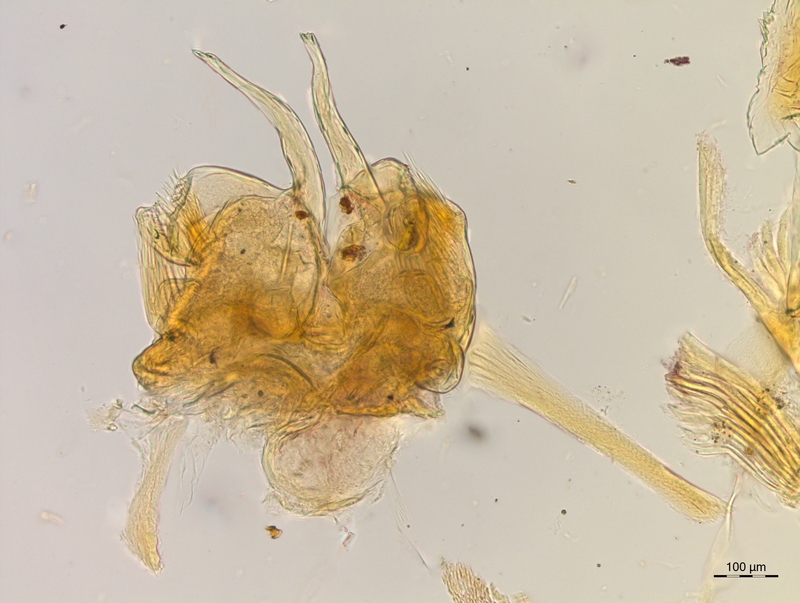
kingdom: Animalia
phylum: Arthropoda
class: Diplopoda
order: Chordeumatida
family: Craspedosomatidae
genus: Craspedosoma
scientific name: Craspedosoma brentanum
